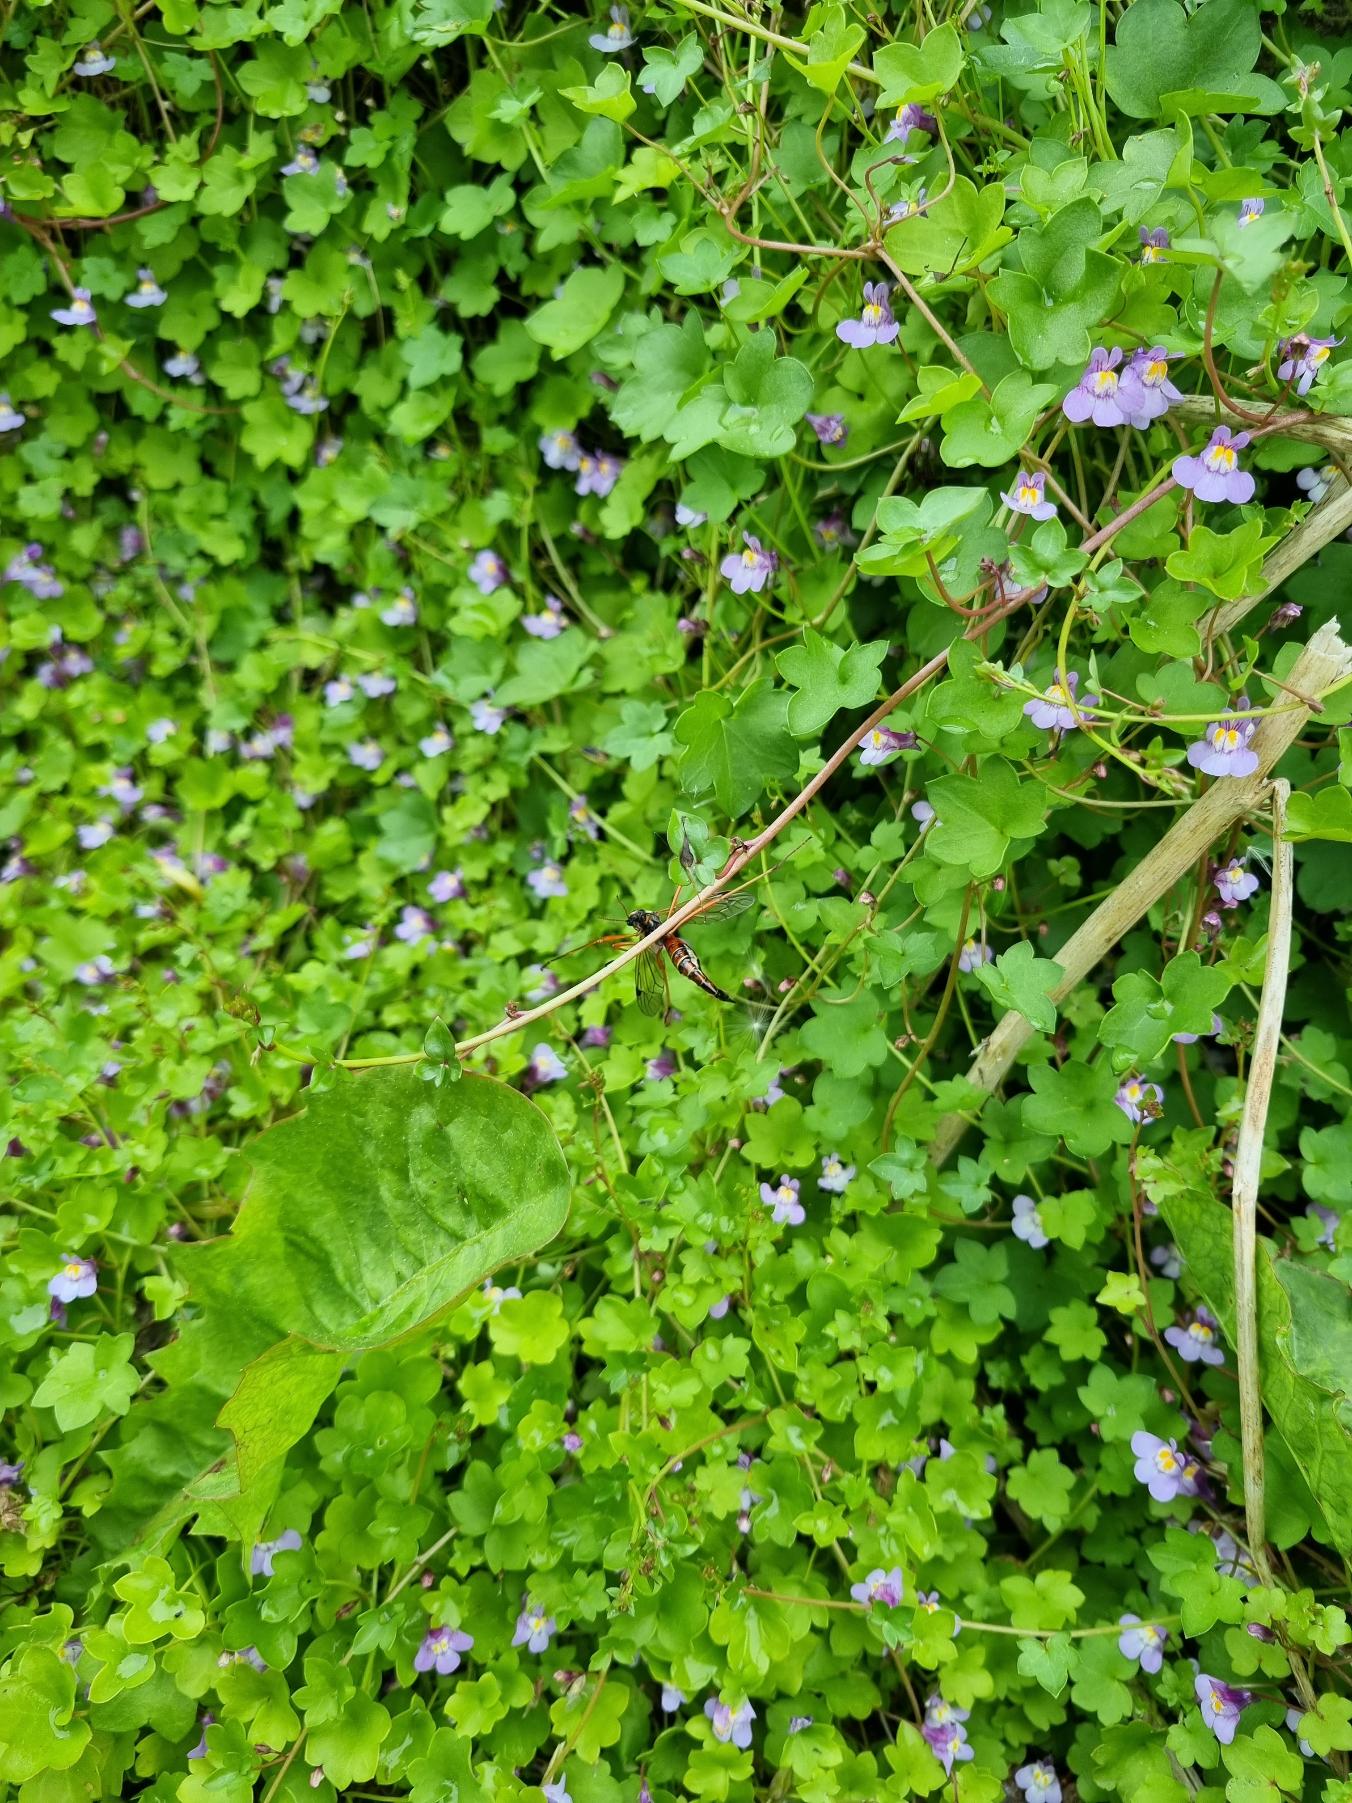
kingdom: Plantae
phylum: Tracheophyta
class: Magnoliopsida
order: Lamiales
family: Plantaginaceae
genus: Cymbalaria
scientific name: Cymbalaria muralis
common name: Vedbend-torskemund
